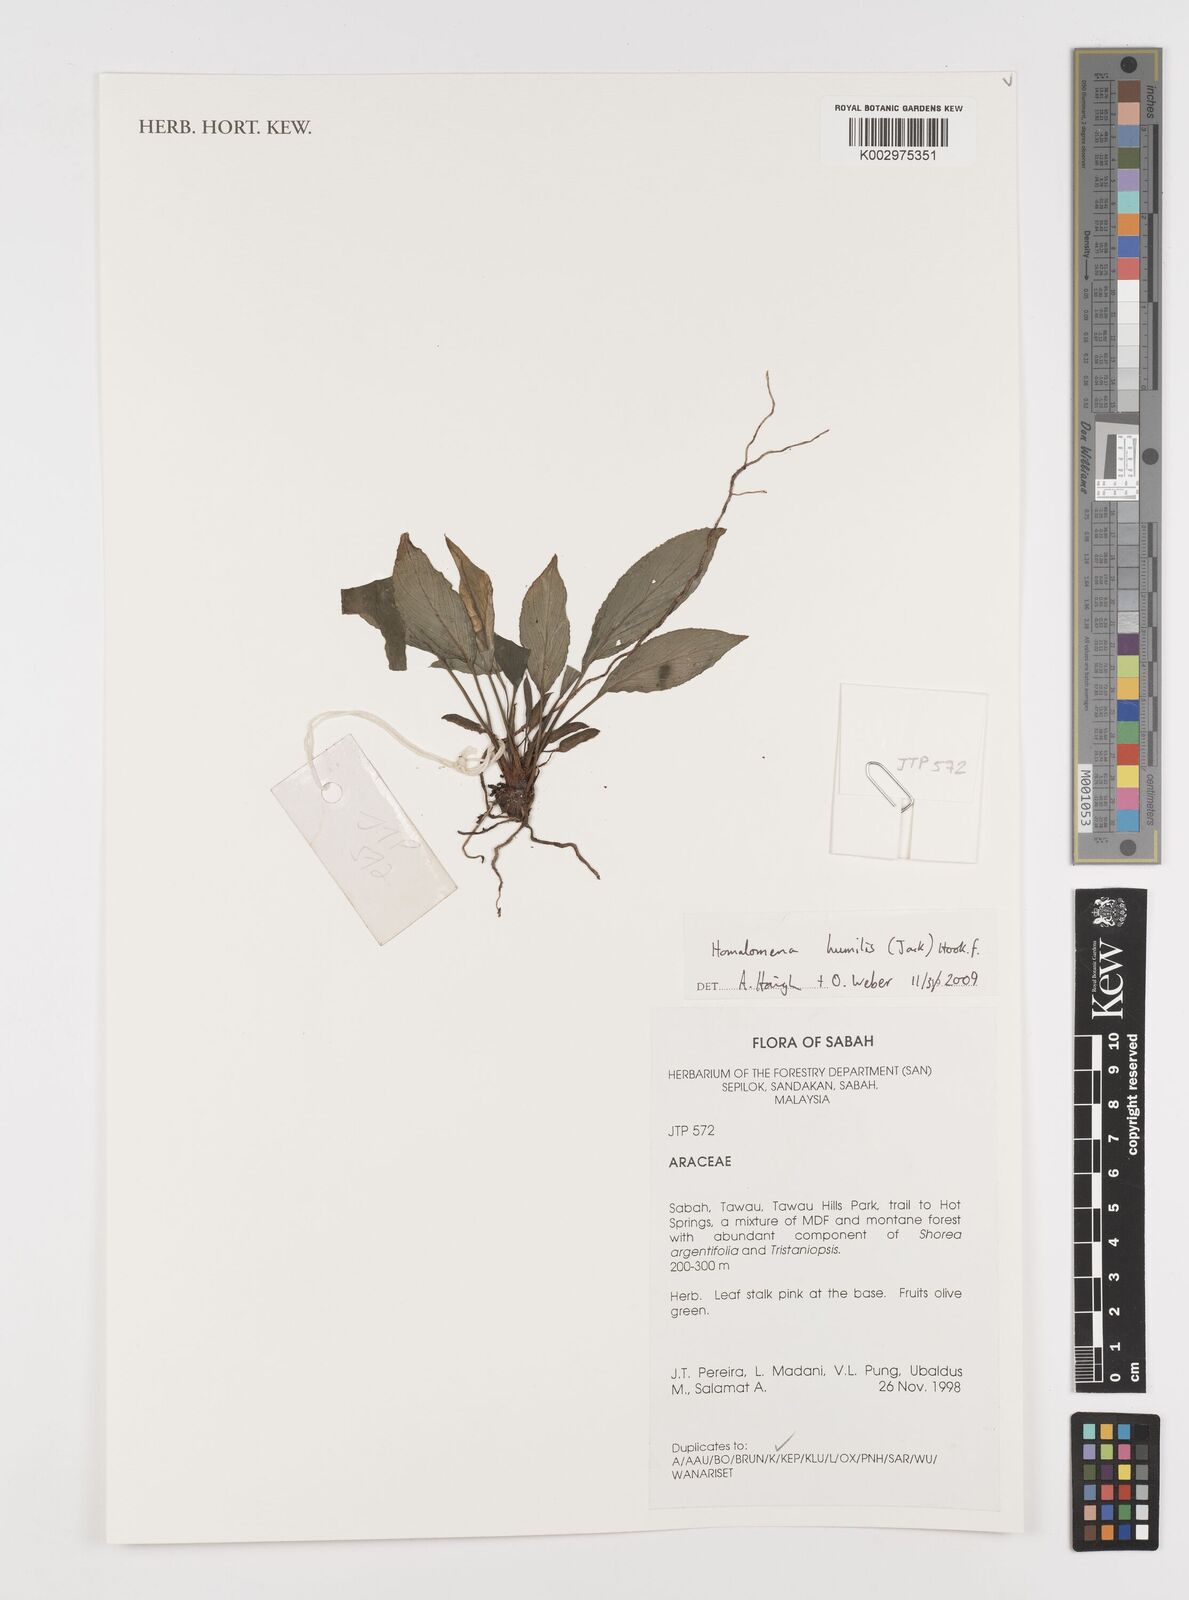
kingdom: Plantae
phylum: Tracheophyta
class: Liliopsida
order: Alismatales
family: Araceae
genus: Homalomena
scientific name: Homalomena humilis
